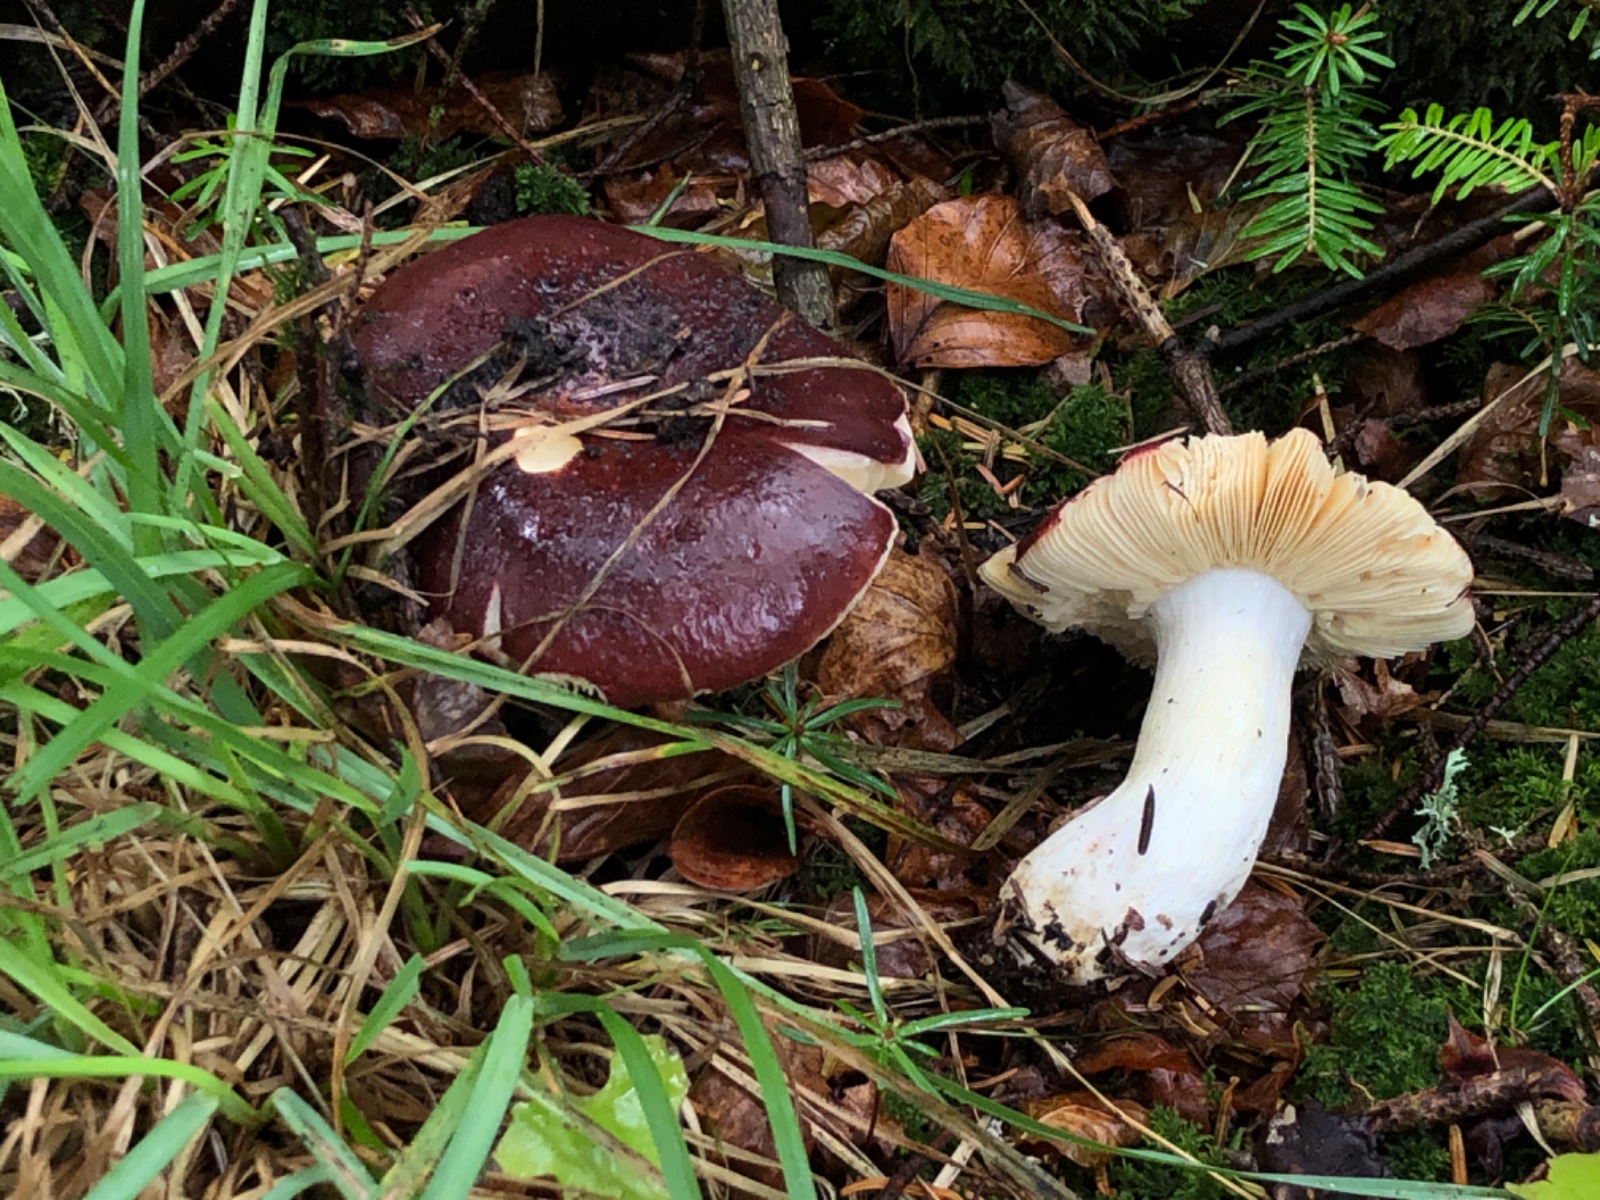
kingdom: Fungi
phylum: Basidiomycota
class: Agaricomycetes
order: Russulales
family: Russulaceae
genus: Russula
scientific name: Russula
